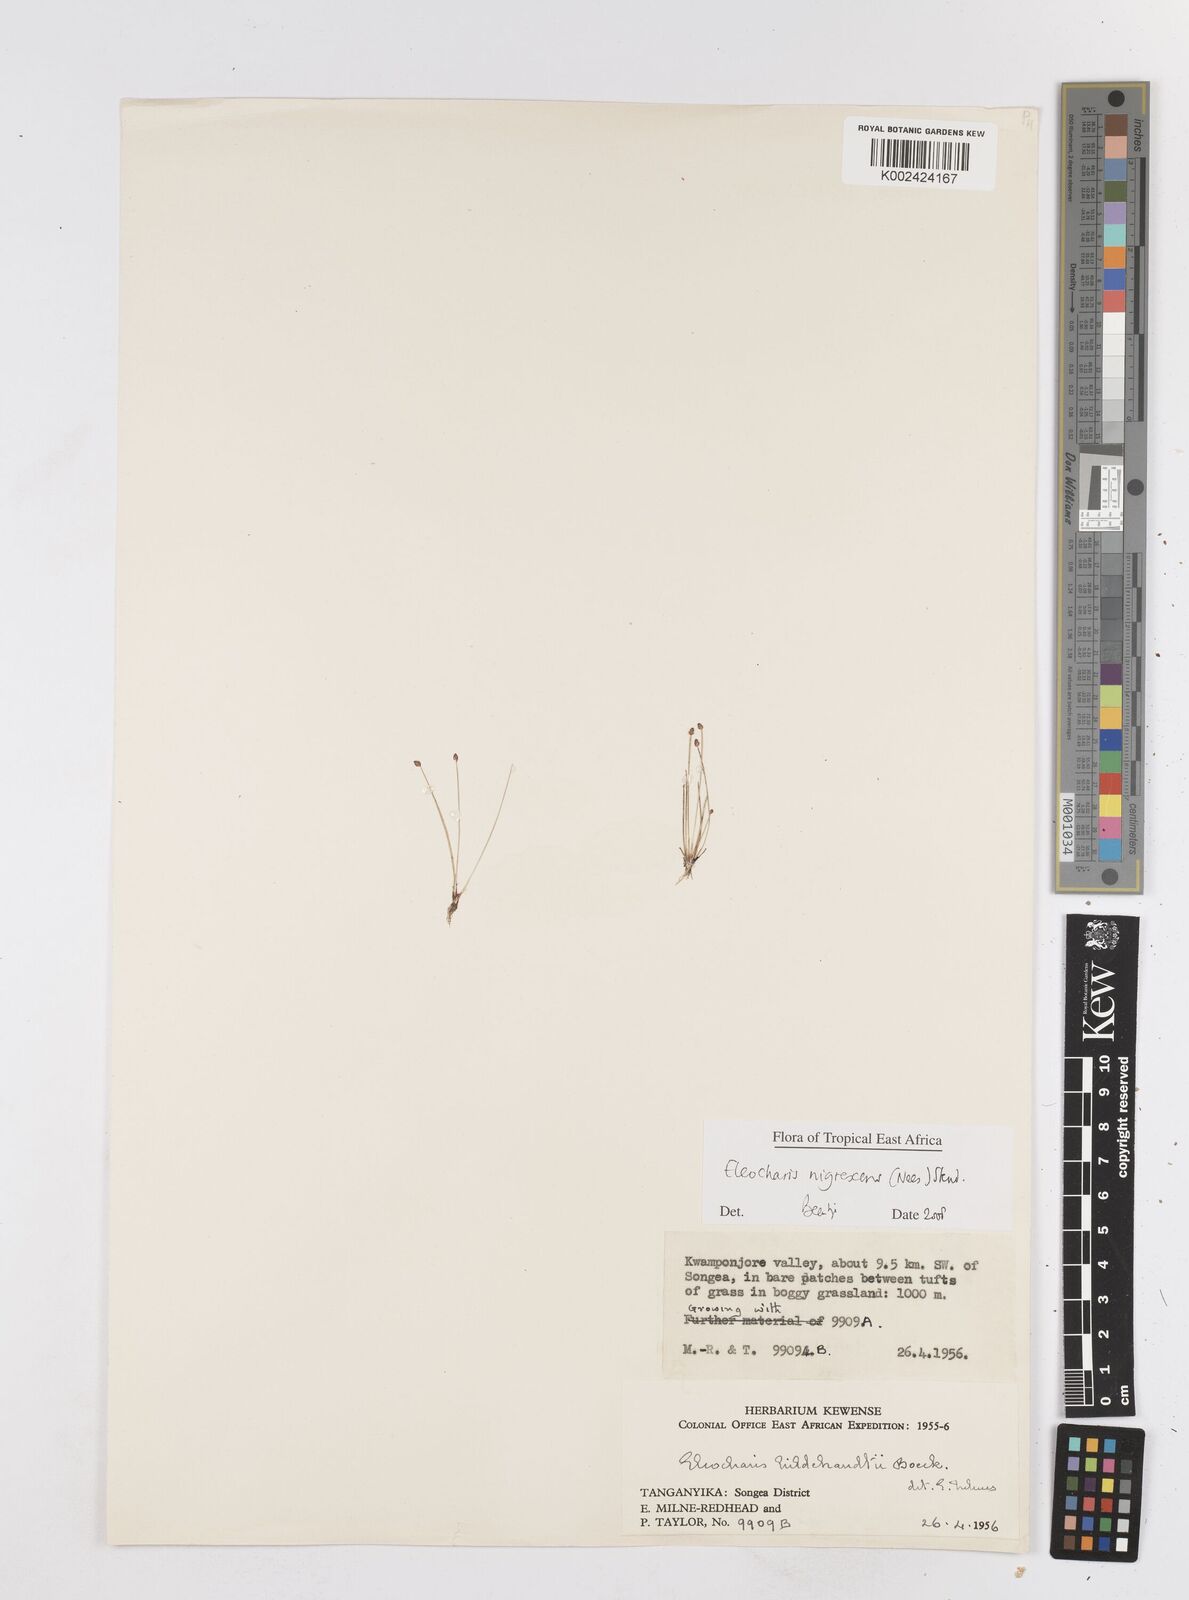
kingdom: Plantae
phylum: Tracheophyta
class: Liliopsida
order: Poales
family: Cyperaceae
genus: Eleocharis
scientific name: Eleocharis nigrescens
